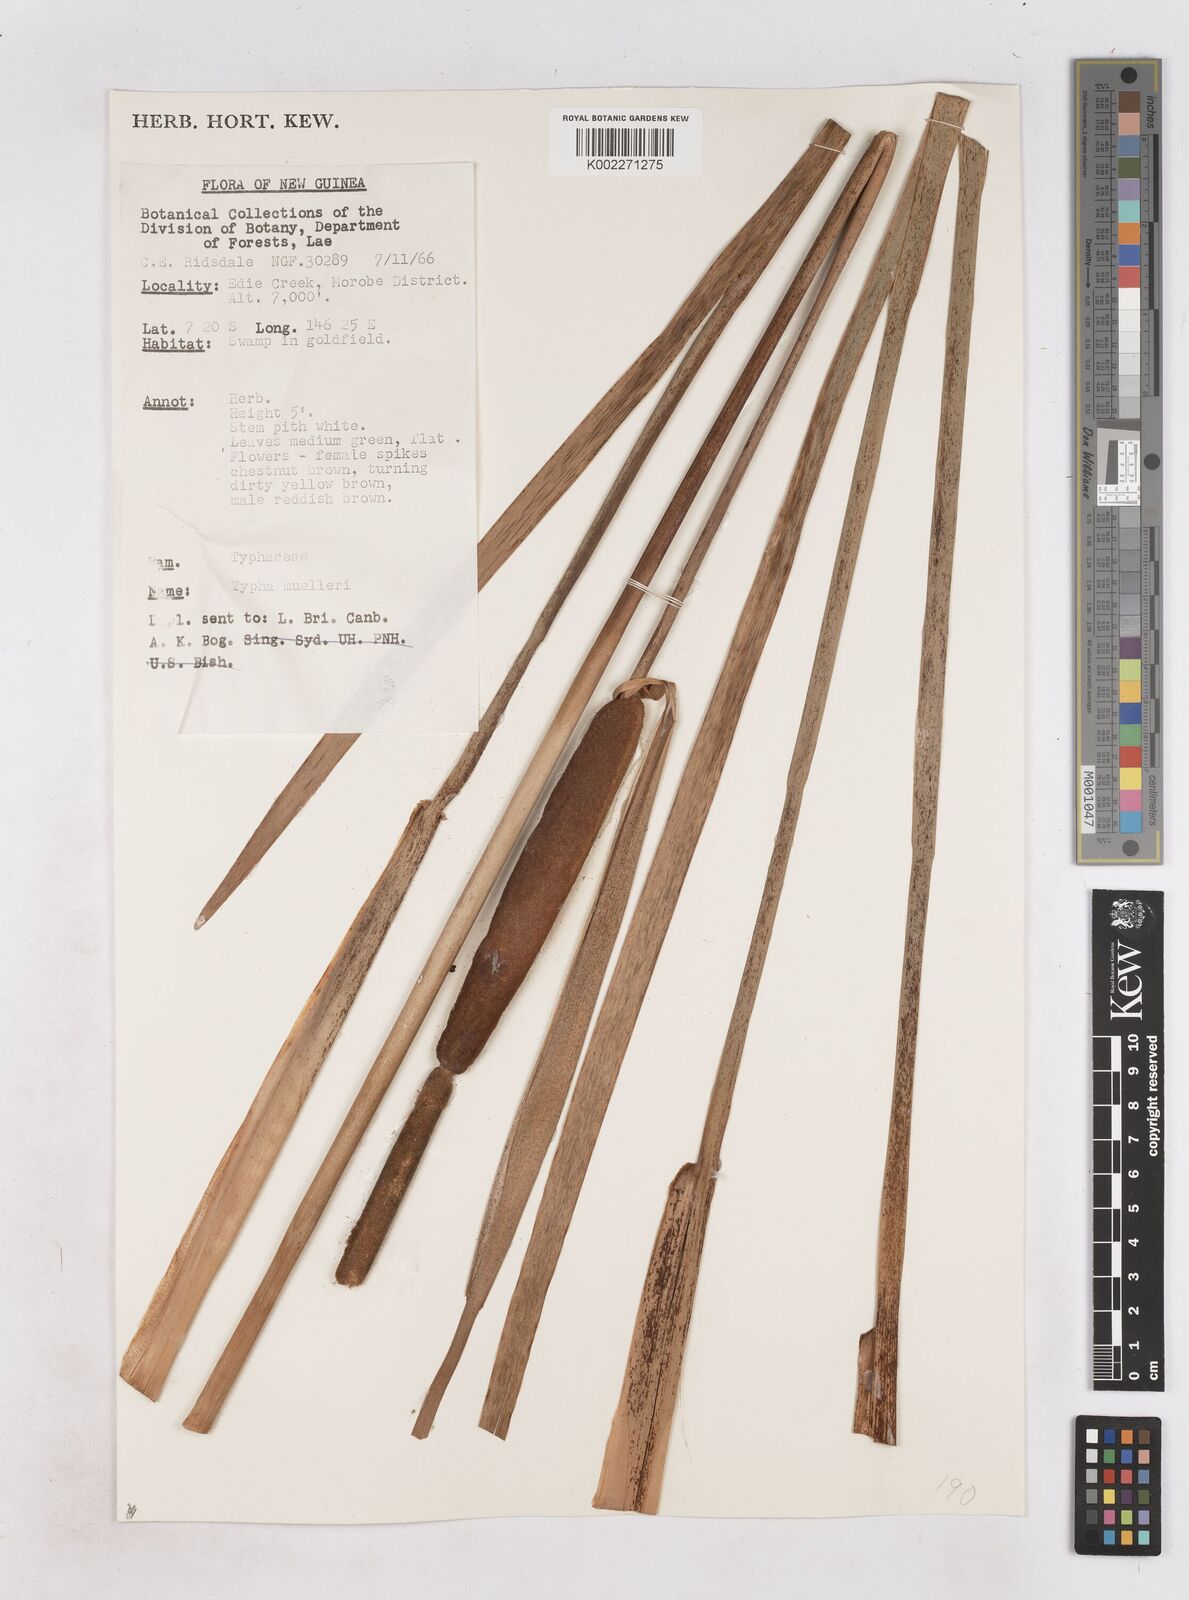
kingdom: Plantae
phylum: Tracheophyta
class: Liliopsida
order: Poales
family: Typhaceae
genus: Typha
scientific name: Typha orientalis
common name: Bullrush
